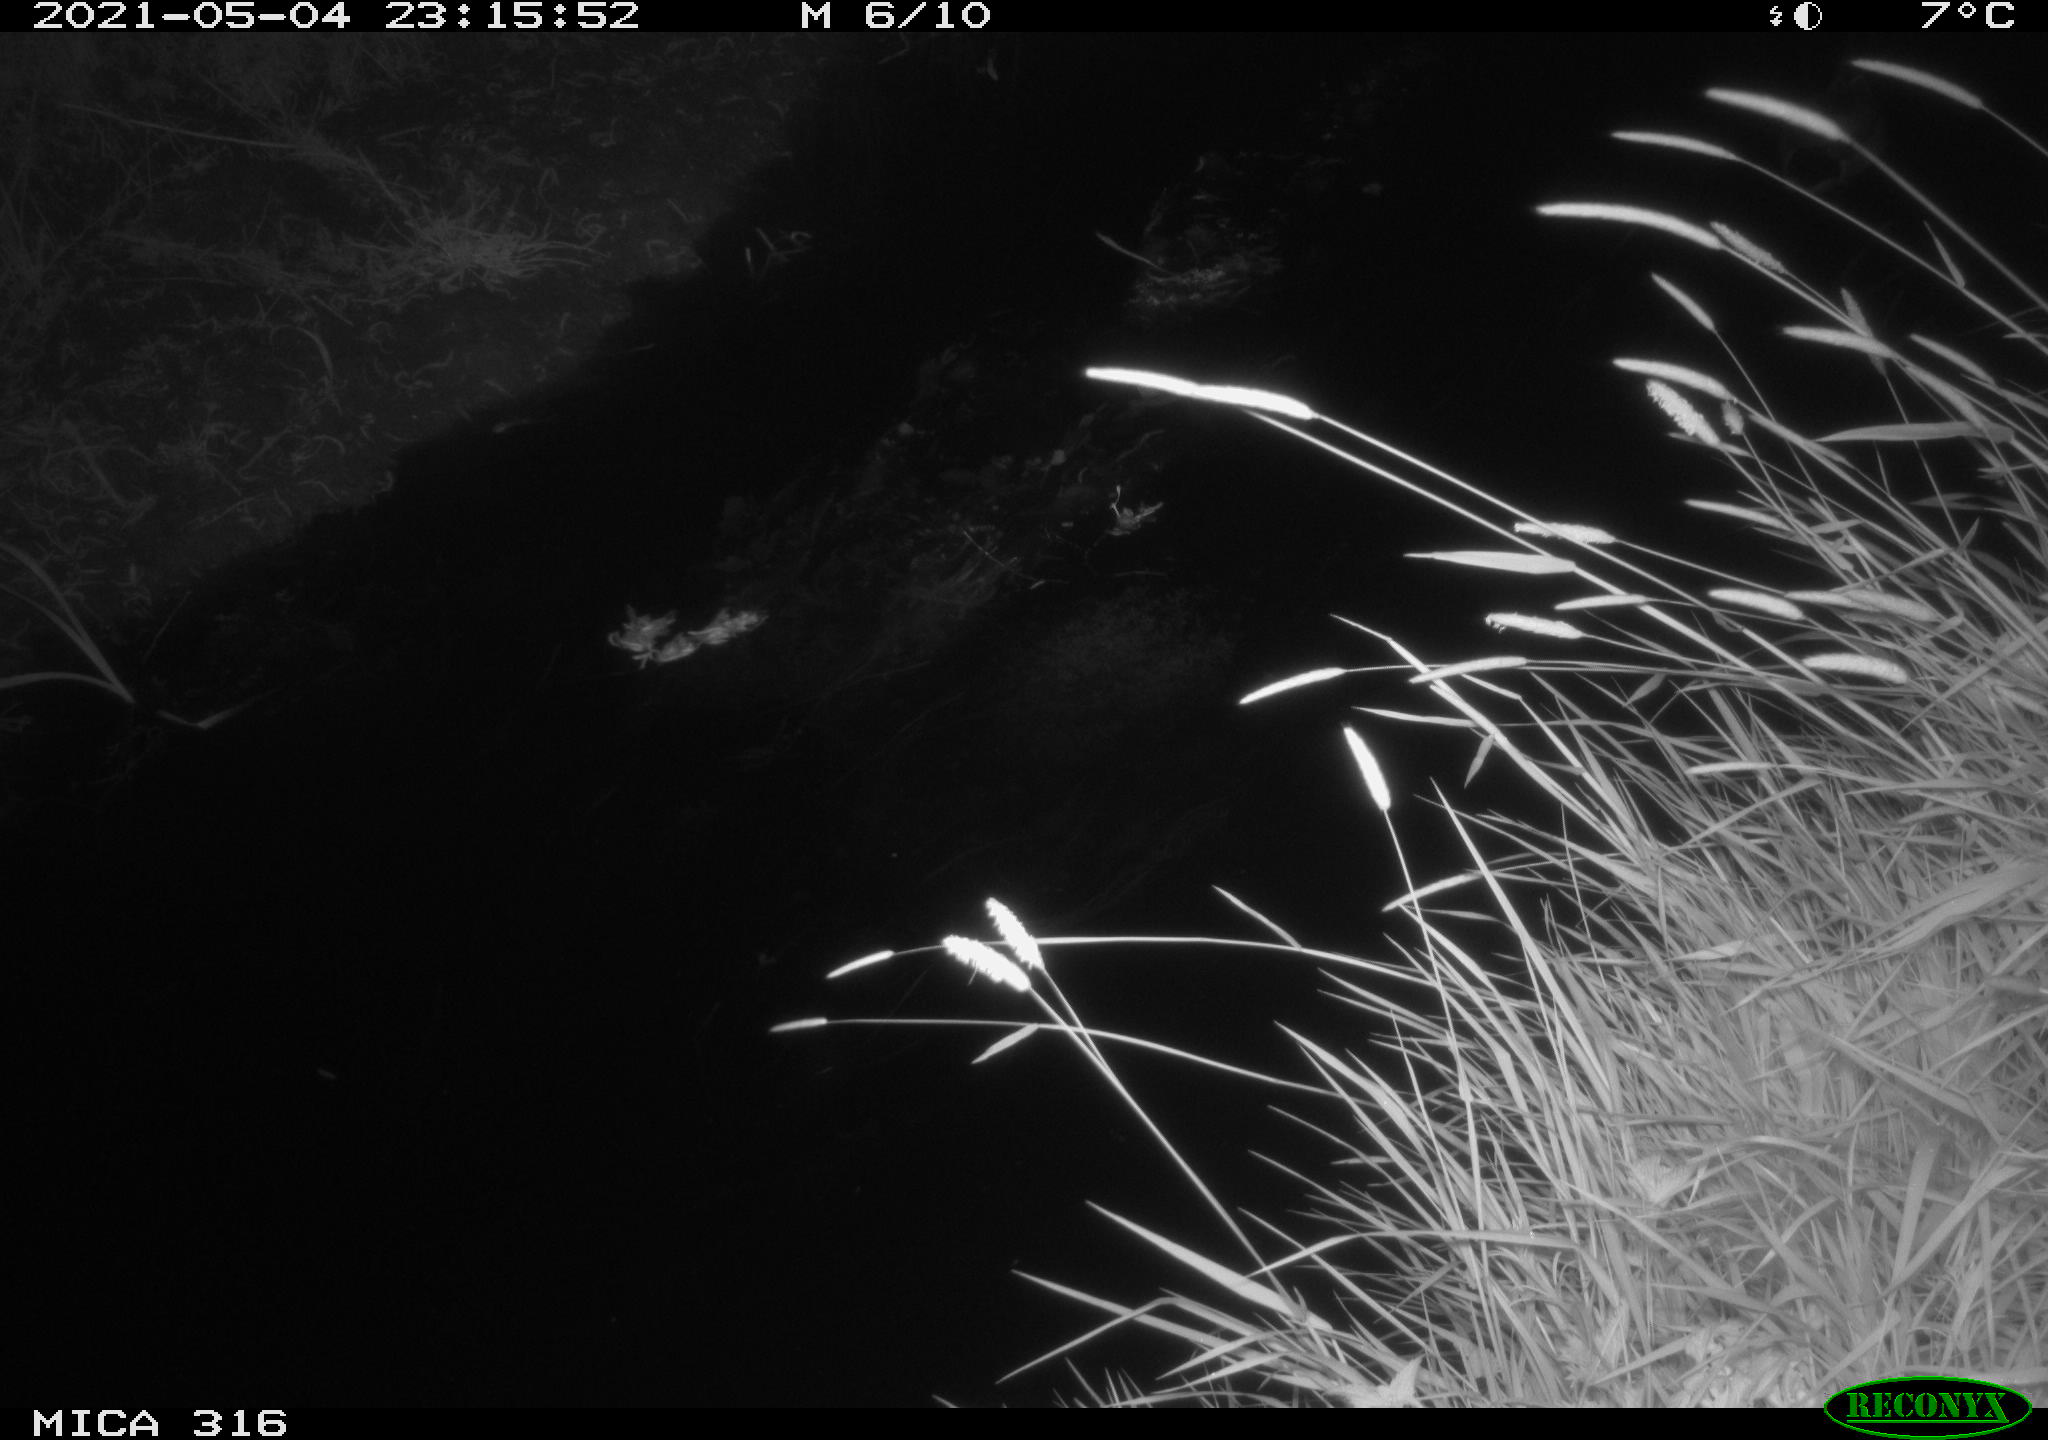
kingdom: Animalia
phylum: Chordata
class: Aves
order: Anseriformes
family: Anatidae
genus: Anas
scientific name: Anas platyrhynchos
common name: Mallard
